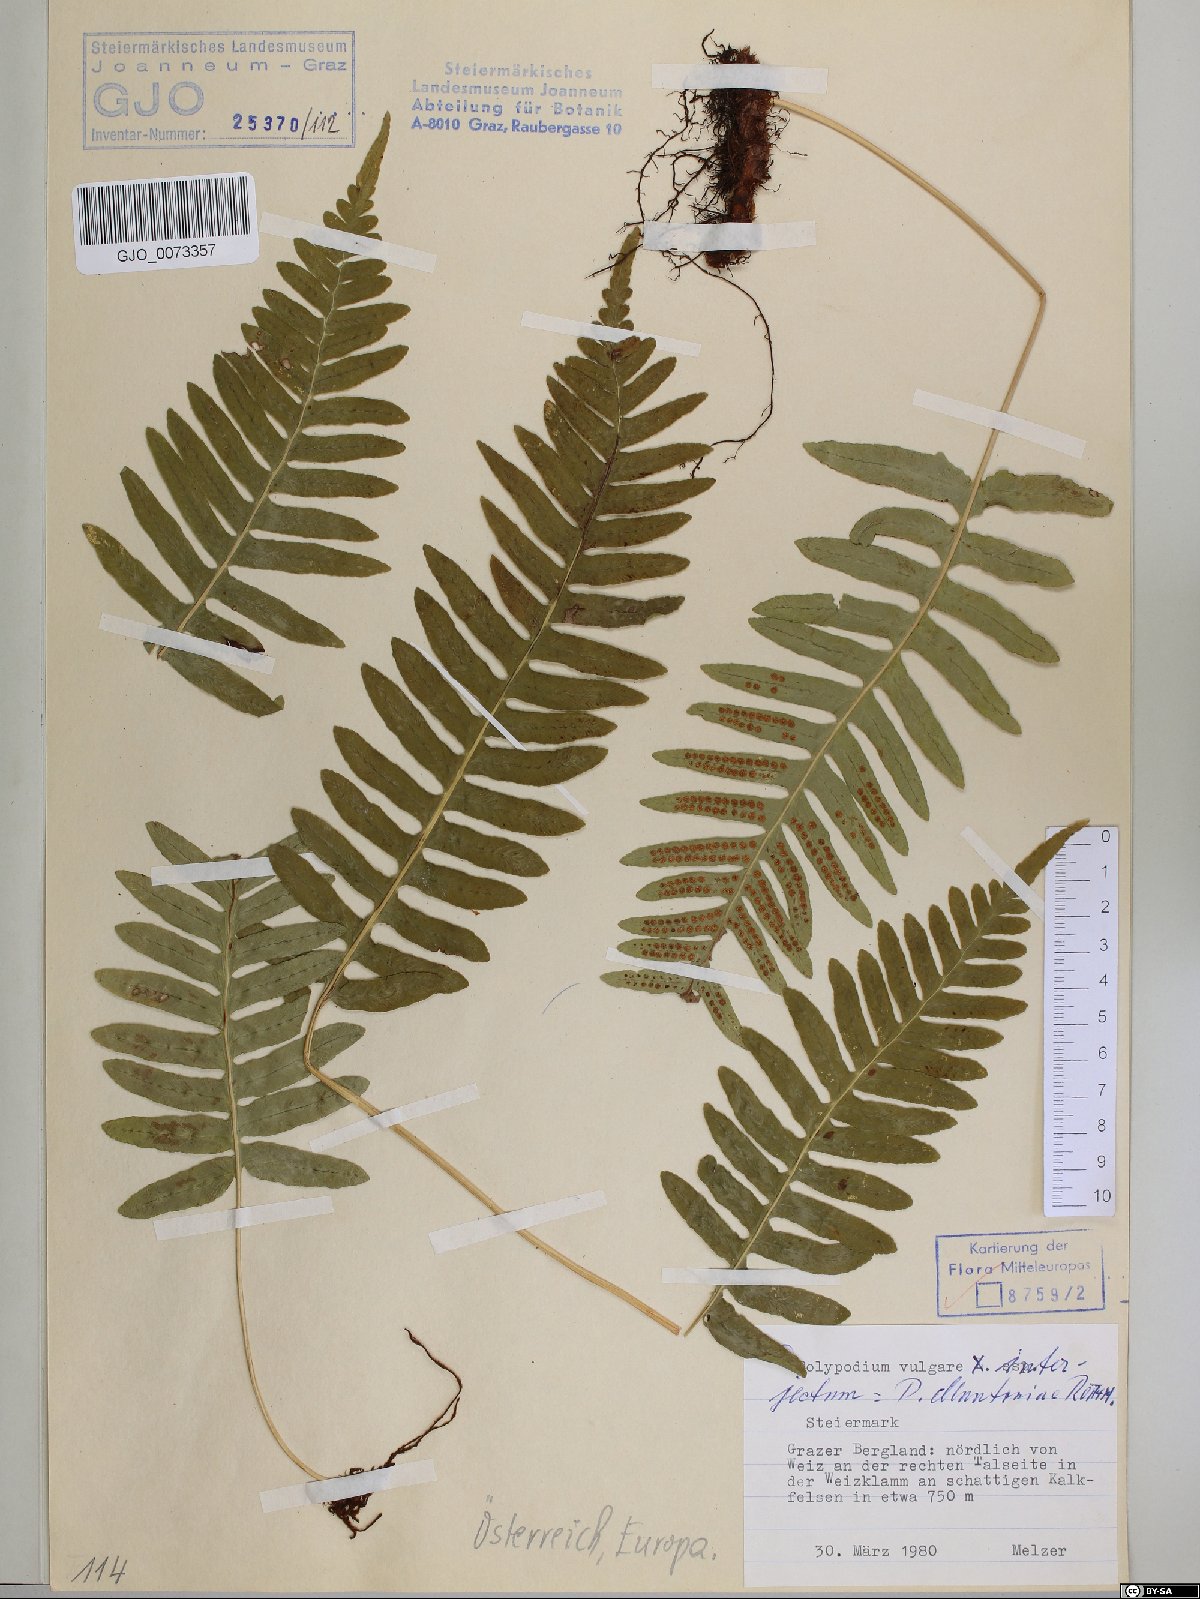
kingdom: Plantae
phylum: Tracheophyta
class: Polypodiopsida
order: Polypodiales
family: Polypodiaceae
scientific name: Polypodiaceae
